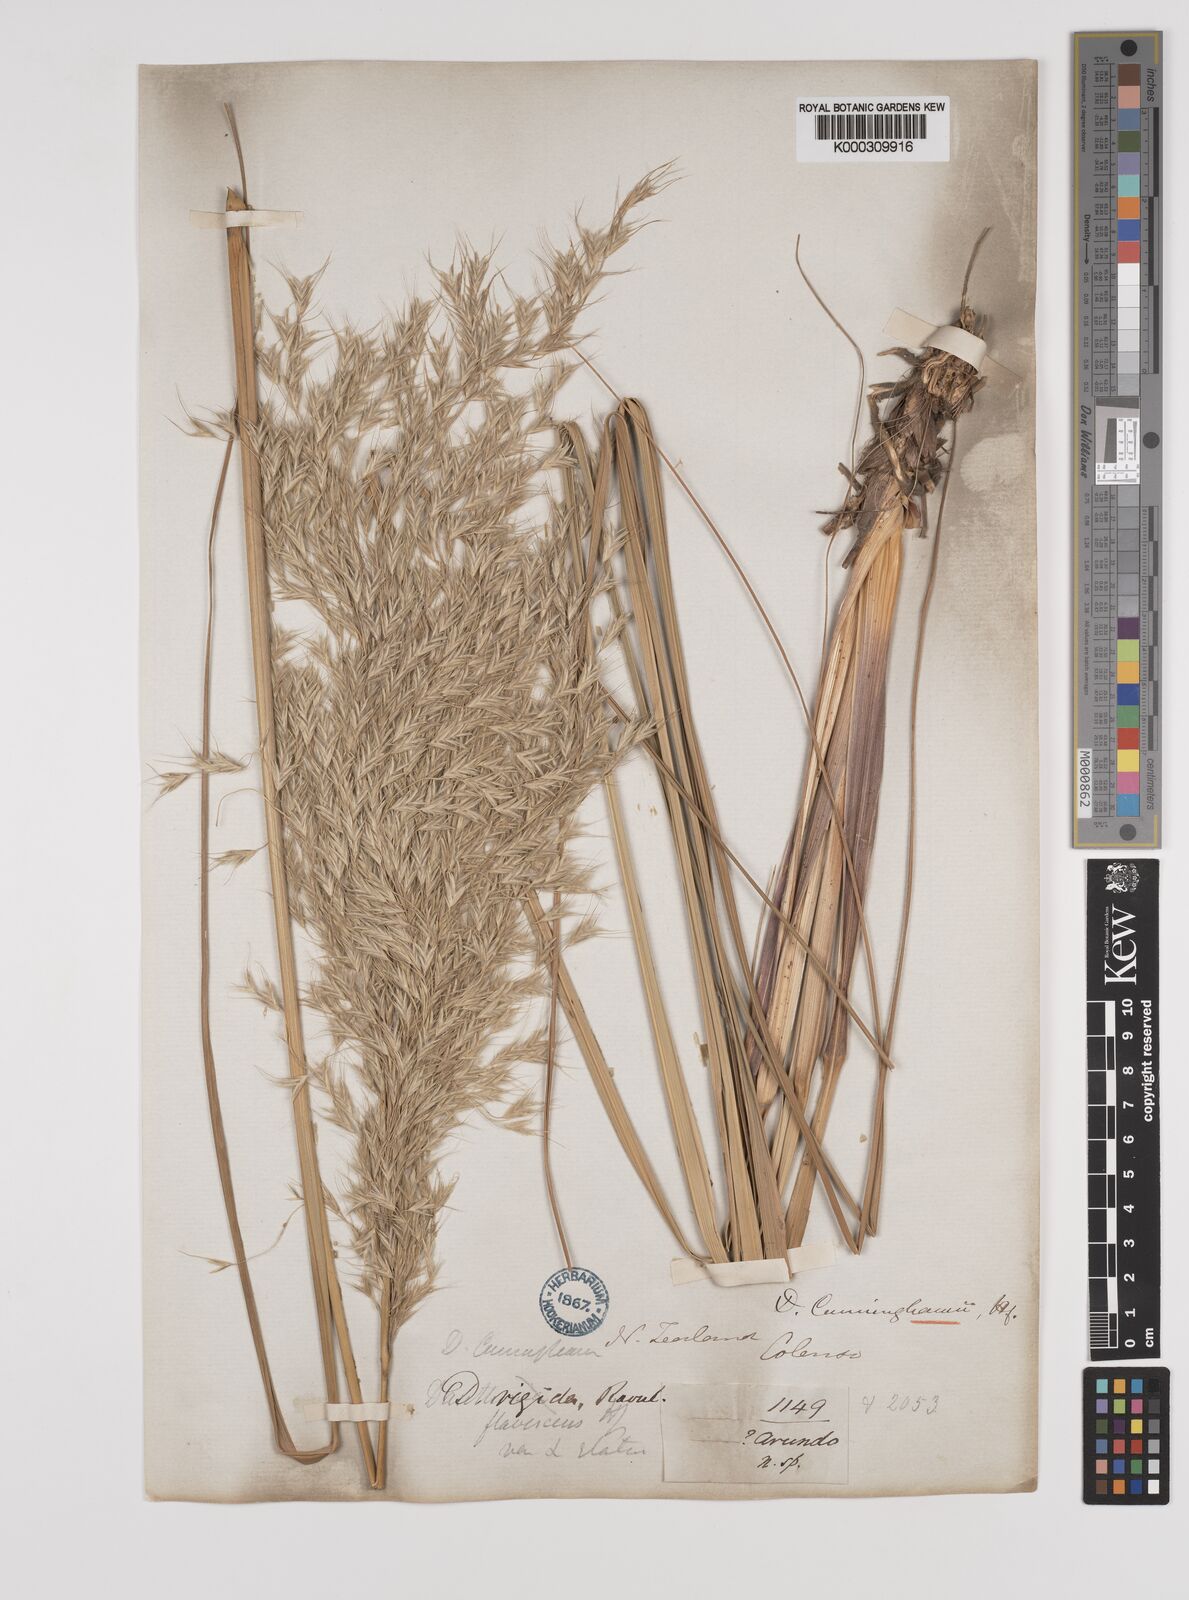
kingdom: Plantae
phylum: Tracheophyta
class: Liliopsida
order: Poales
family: Poaceae
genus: Chionochloa
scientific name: Chionochloa conspicua
